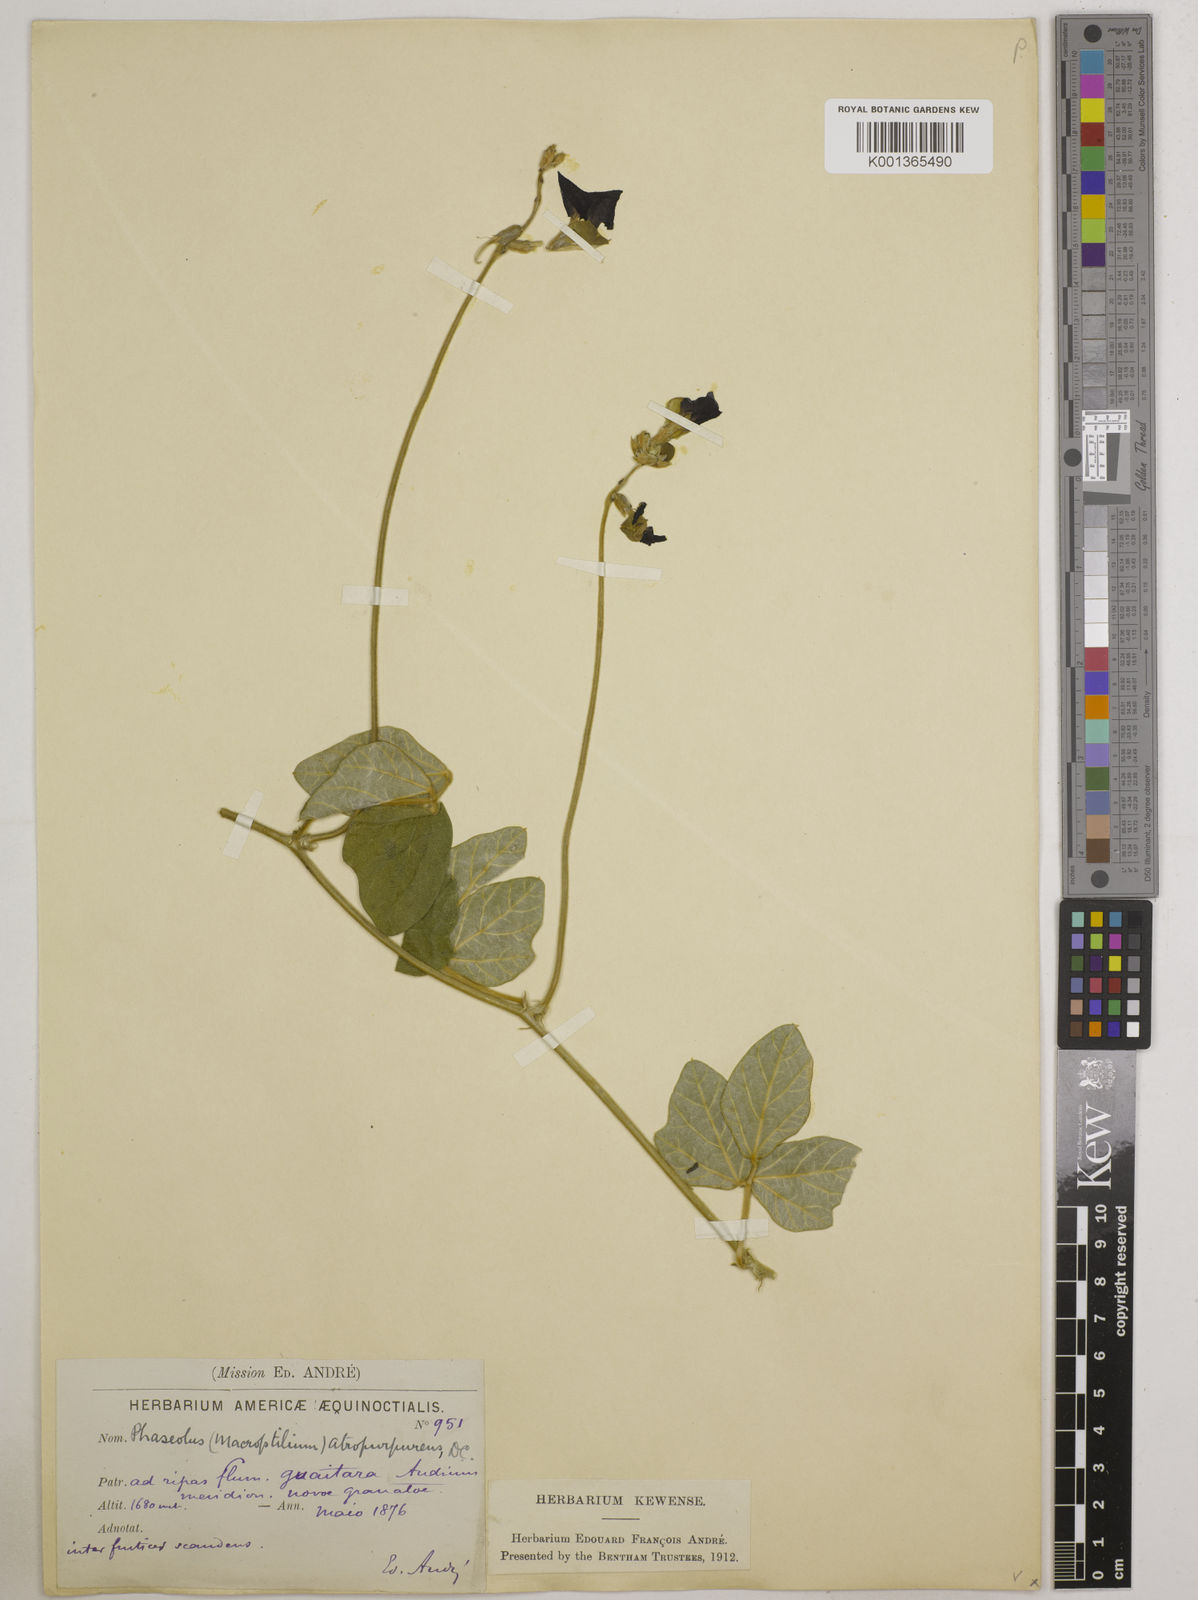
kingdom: Plantae
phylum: Tracheophyta
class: Magnoliopsida
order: Fabales
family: Fabaceae
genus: Macroptilium
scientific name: Macroptilium atropurpureum
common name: Purple bushbean
